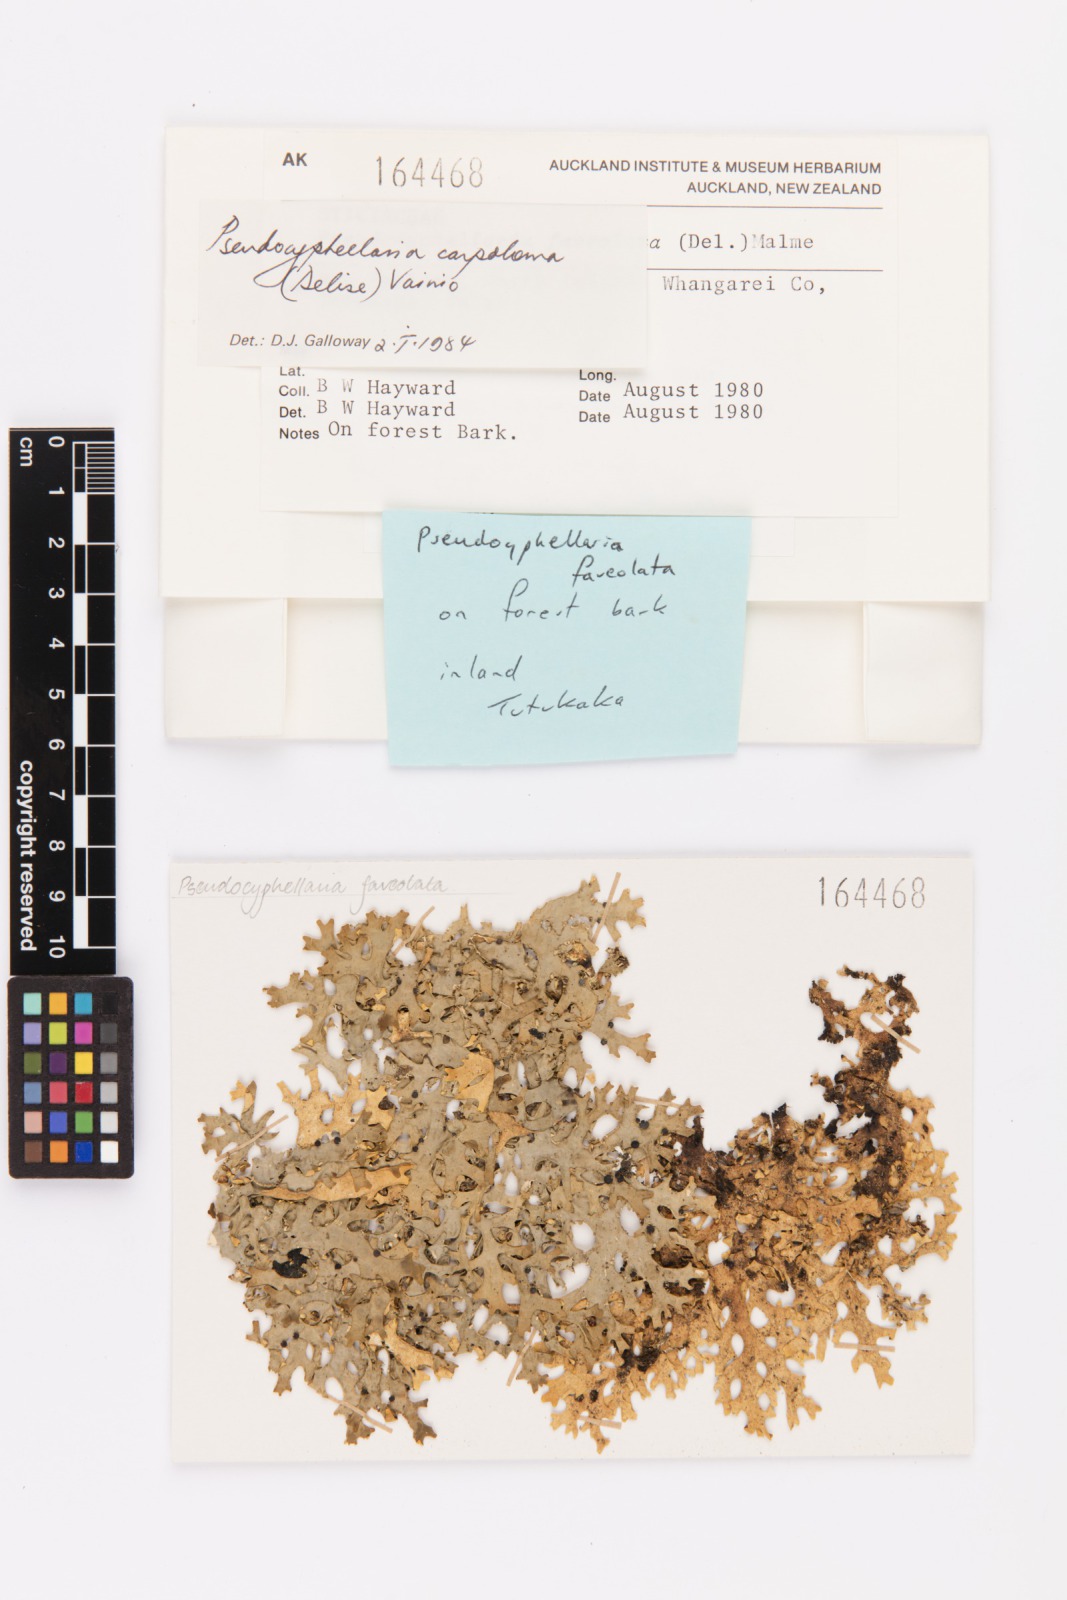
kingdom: Fungi
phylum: Ascomycota
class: Lecanoromycetes
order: Peltigerales
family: Lobariaceae
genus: Pseudocyphellaria
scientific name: Pseudocyphellaria carpoloma
